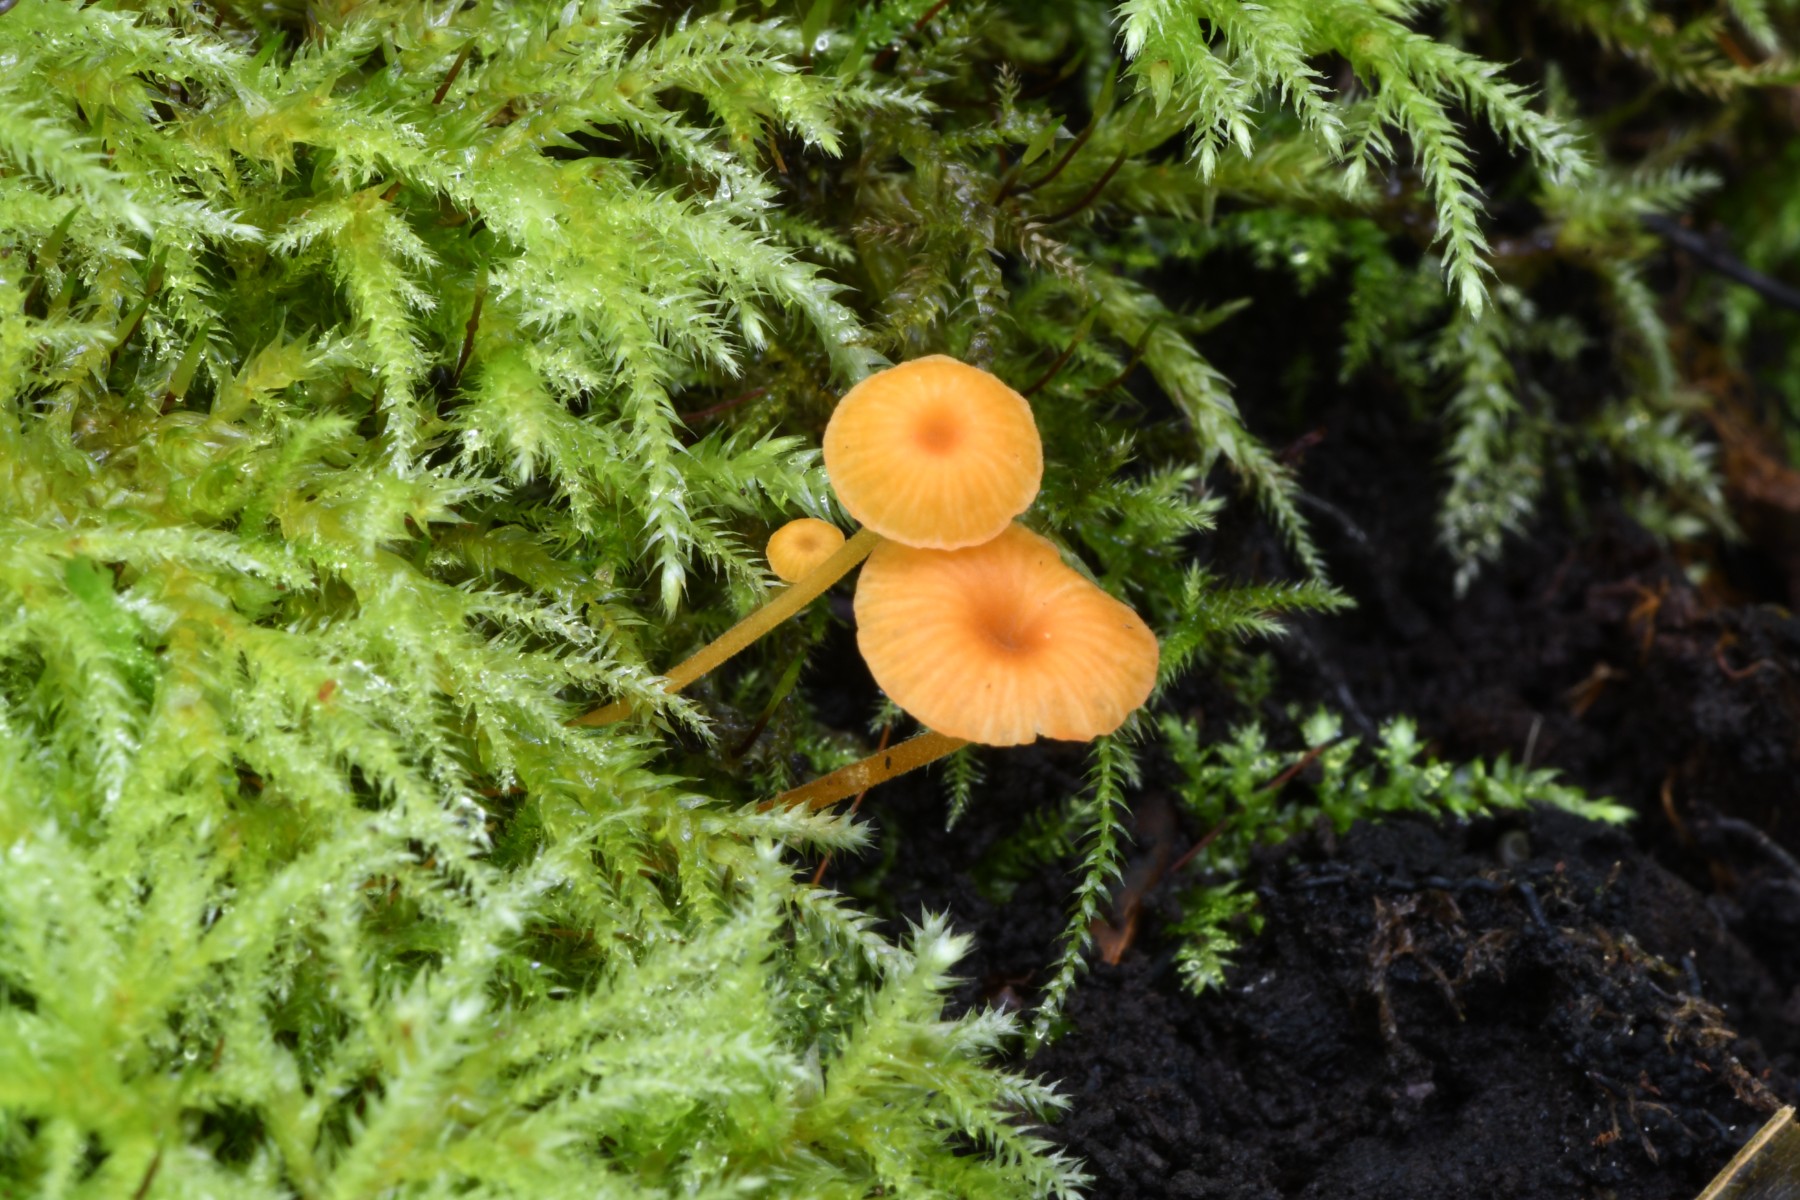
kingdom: Fungi
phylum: Basidiomycota
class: Agaricomycetes
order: Hymenochaetales
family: Rickenellaceae
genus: Rickenella
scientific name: Rickenella fibula
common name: orange mosnavlehat
